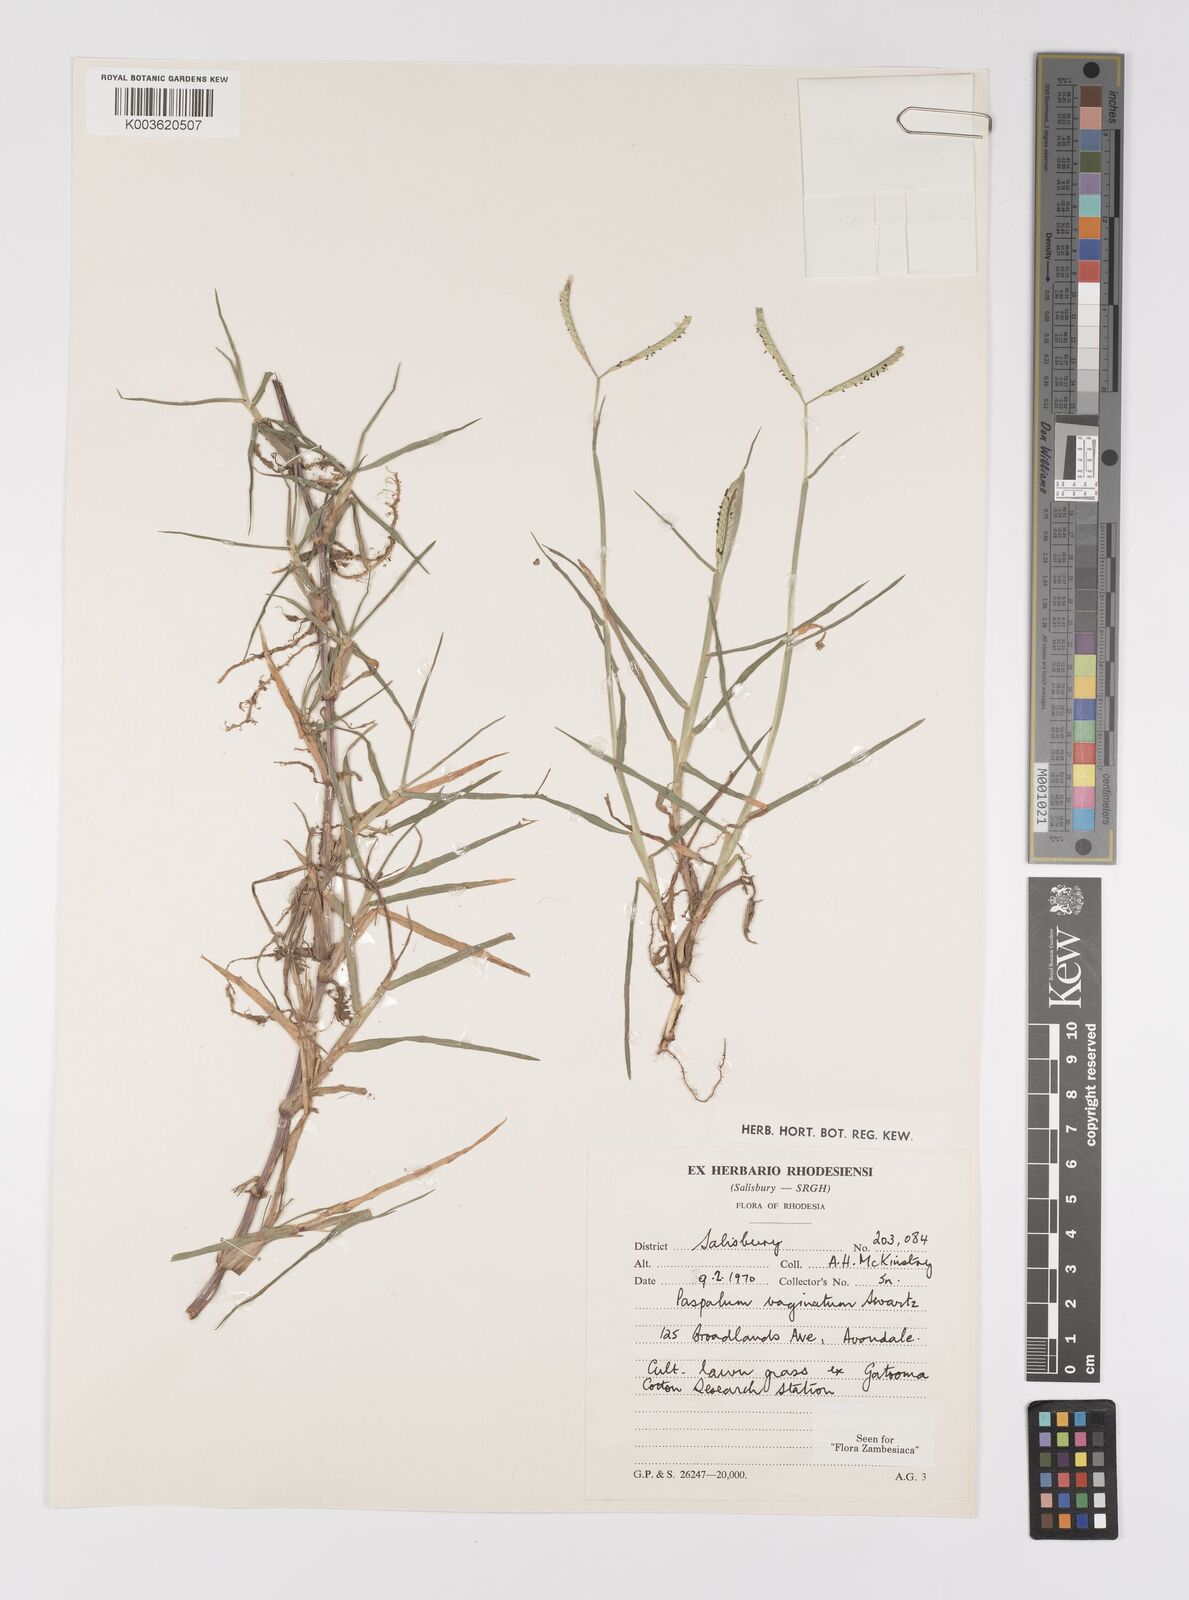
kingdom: Plantae
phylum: Tracheophyta
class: Liliopsida
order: Poales
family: Poaceae
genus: Paspalum
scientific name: Paspalum vaginatum
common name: Seashore paspalum
